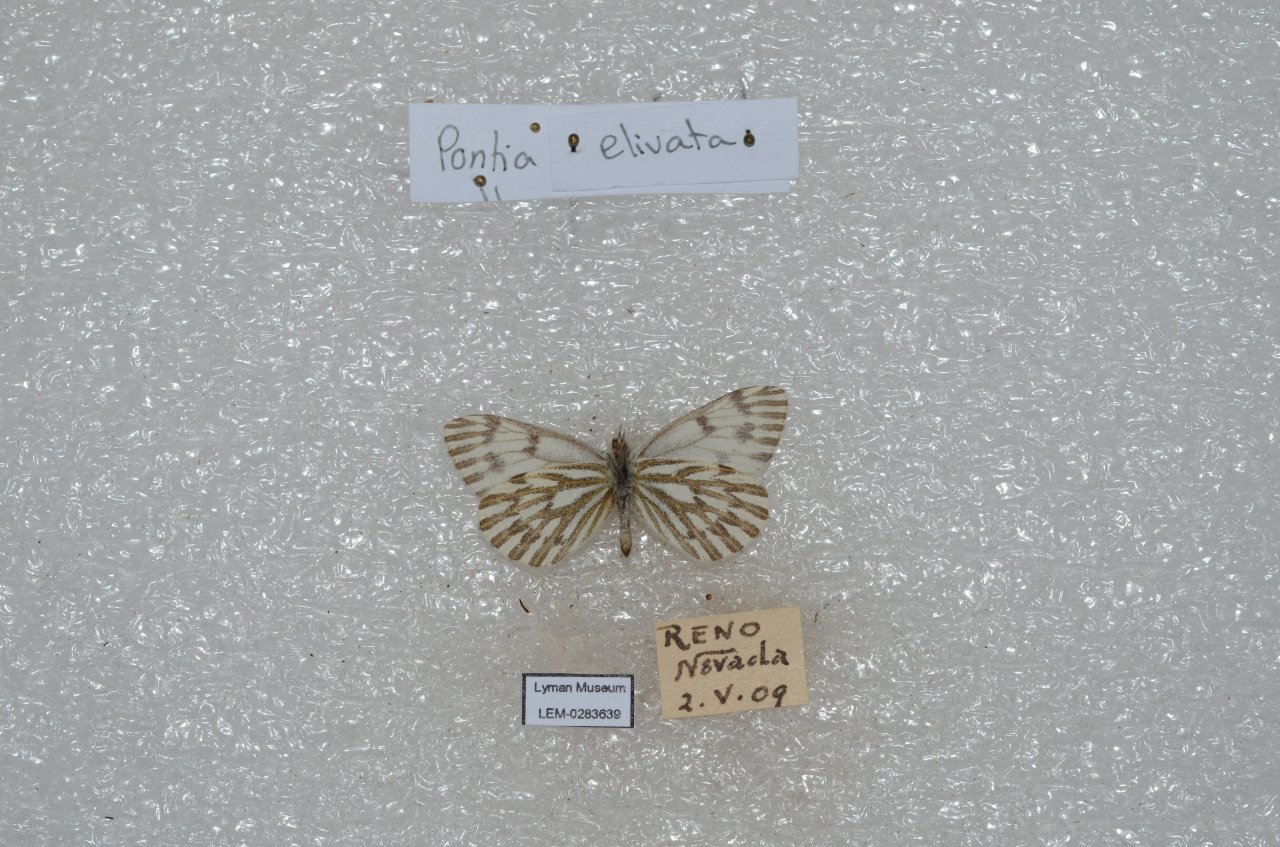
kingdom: Animalia
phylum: Arthropoda
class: Insecta
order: Lepidoptera
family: Pieridae
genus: Pontia
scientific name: Pontia sisymbrii
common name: Spring White
